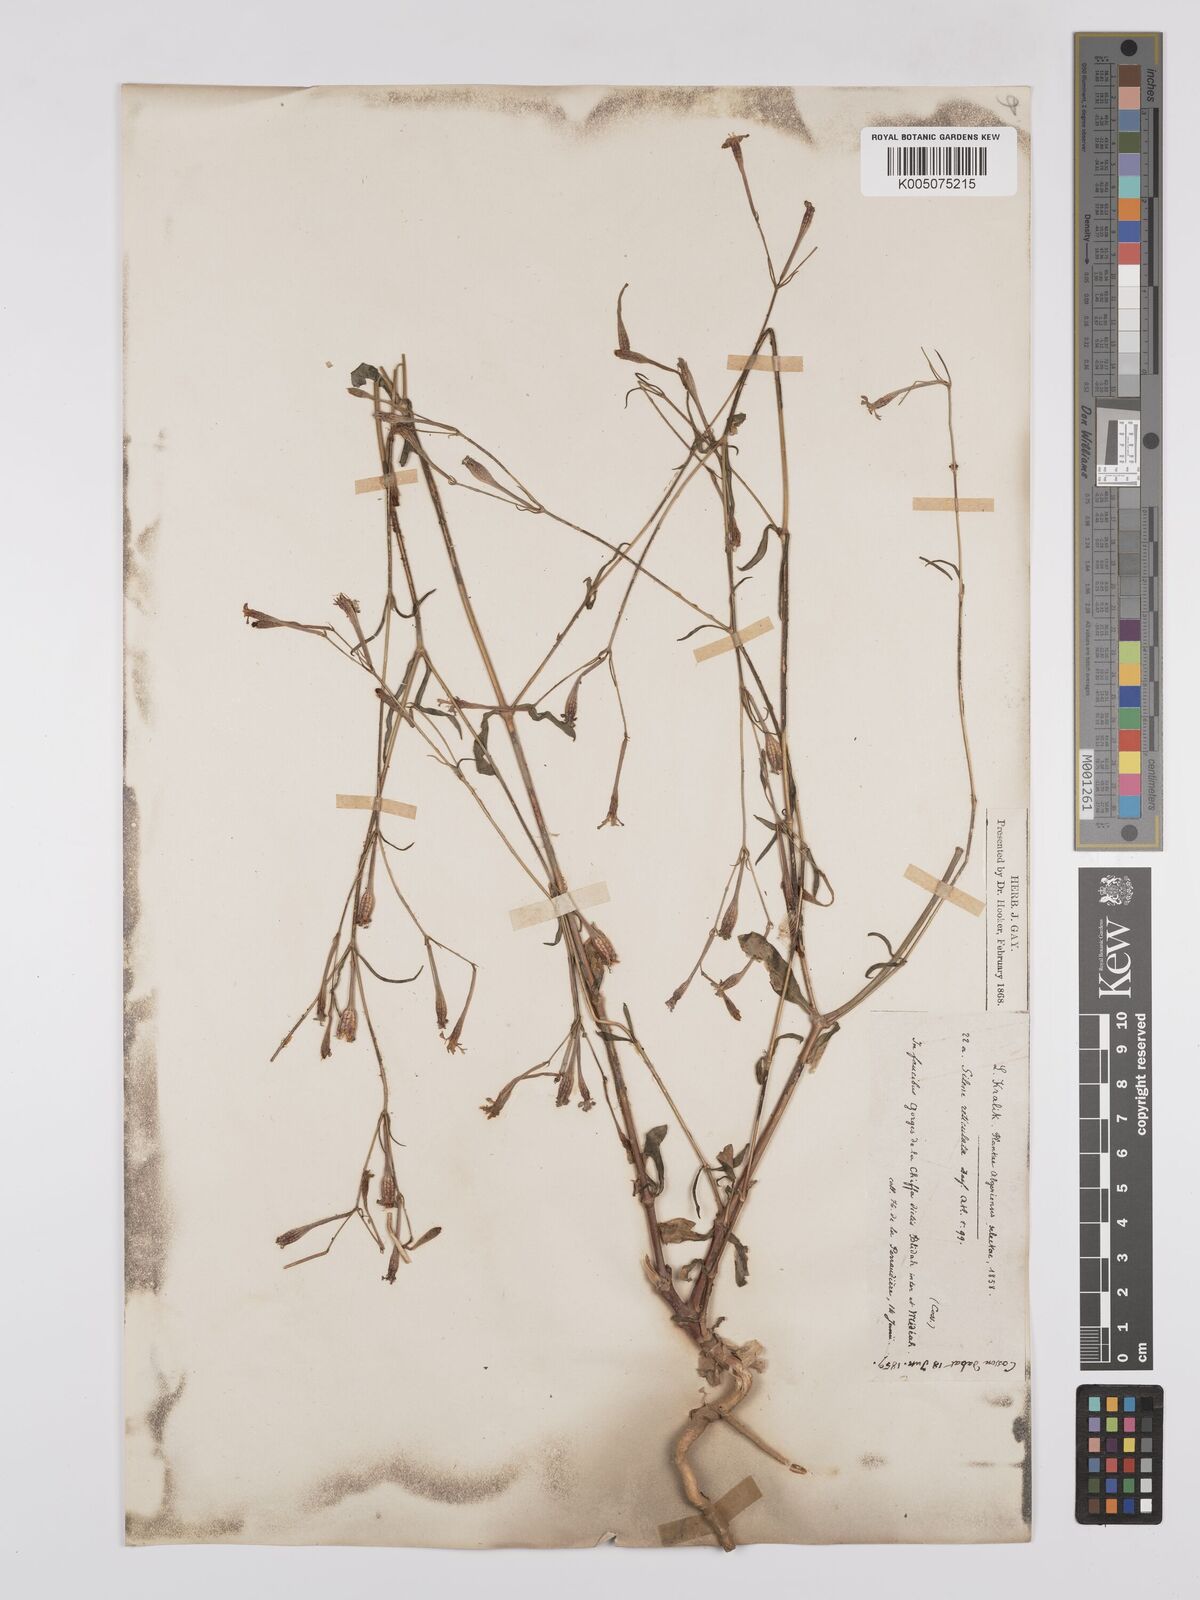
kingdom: Plantae
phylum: Tracheophyta
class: Magnoliopsida
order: Caryophyllales
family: Caryophyllaceae
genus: Silene
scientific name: Silene ramosissima
